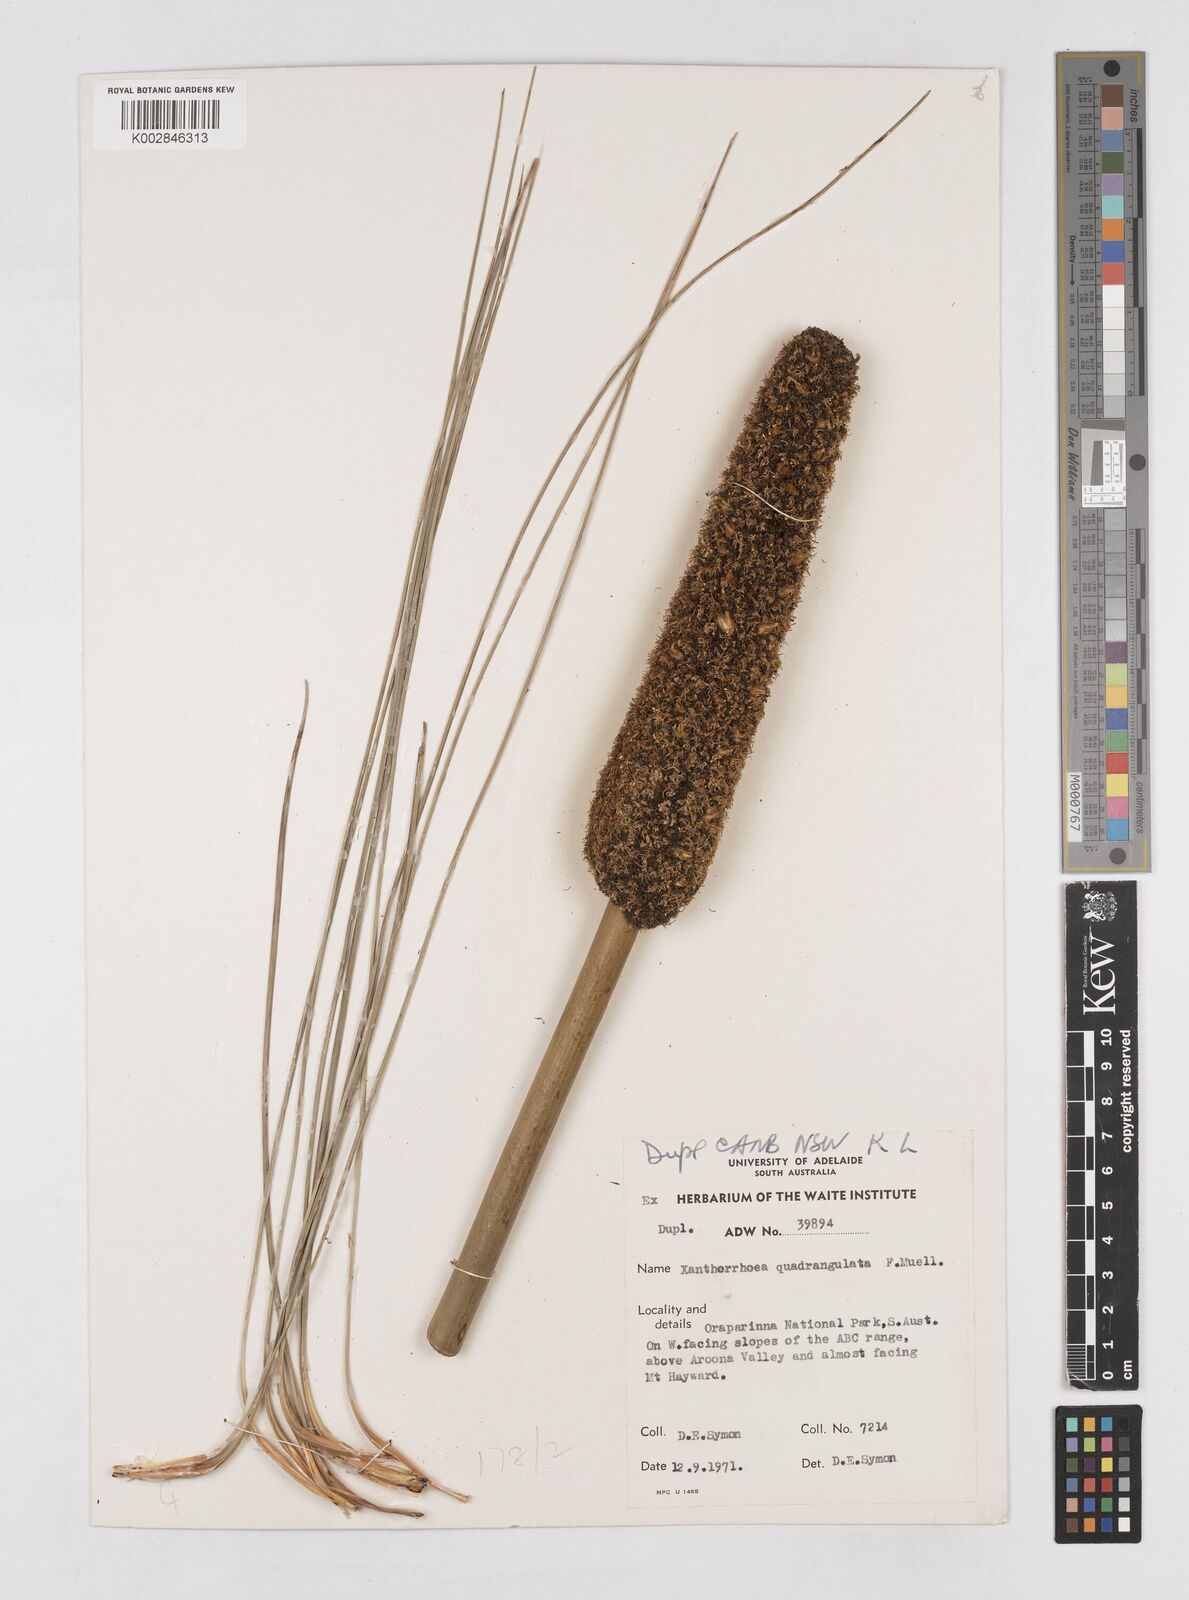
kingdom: Plantae
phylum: Tracheophyta
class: Liliopsida
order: Asparagales
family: Asphodelaceae
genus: Xanthorrhoea
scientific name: Xanthorrhoea quadrangulata
